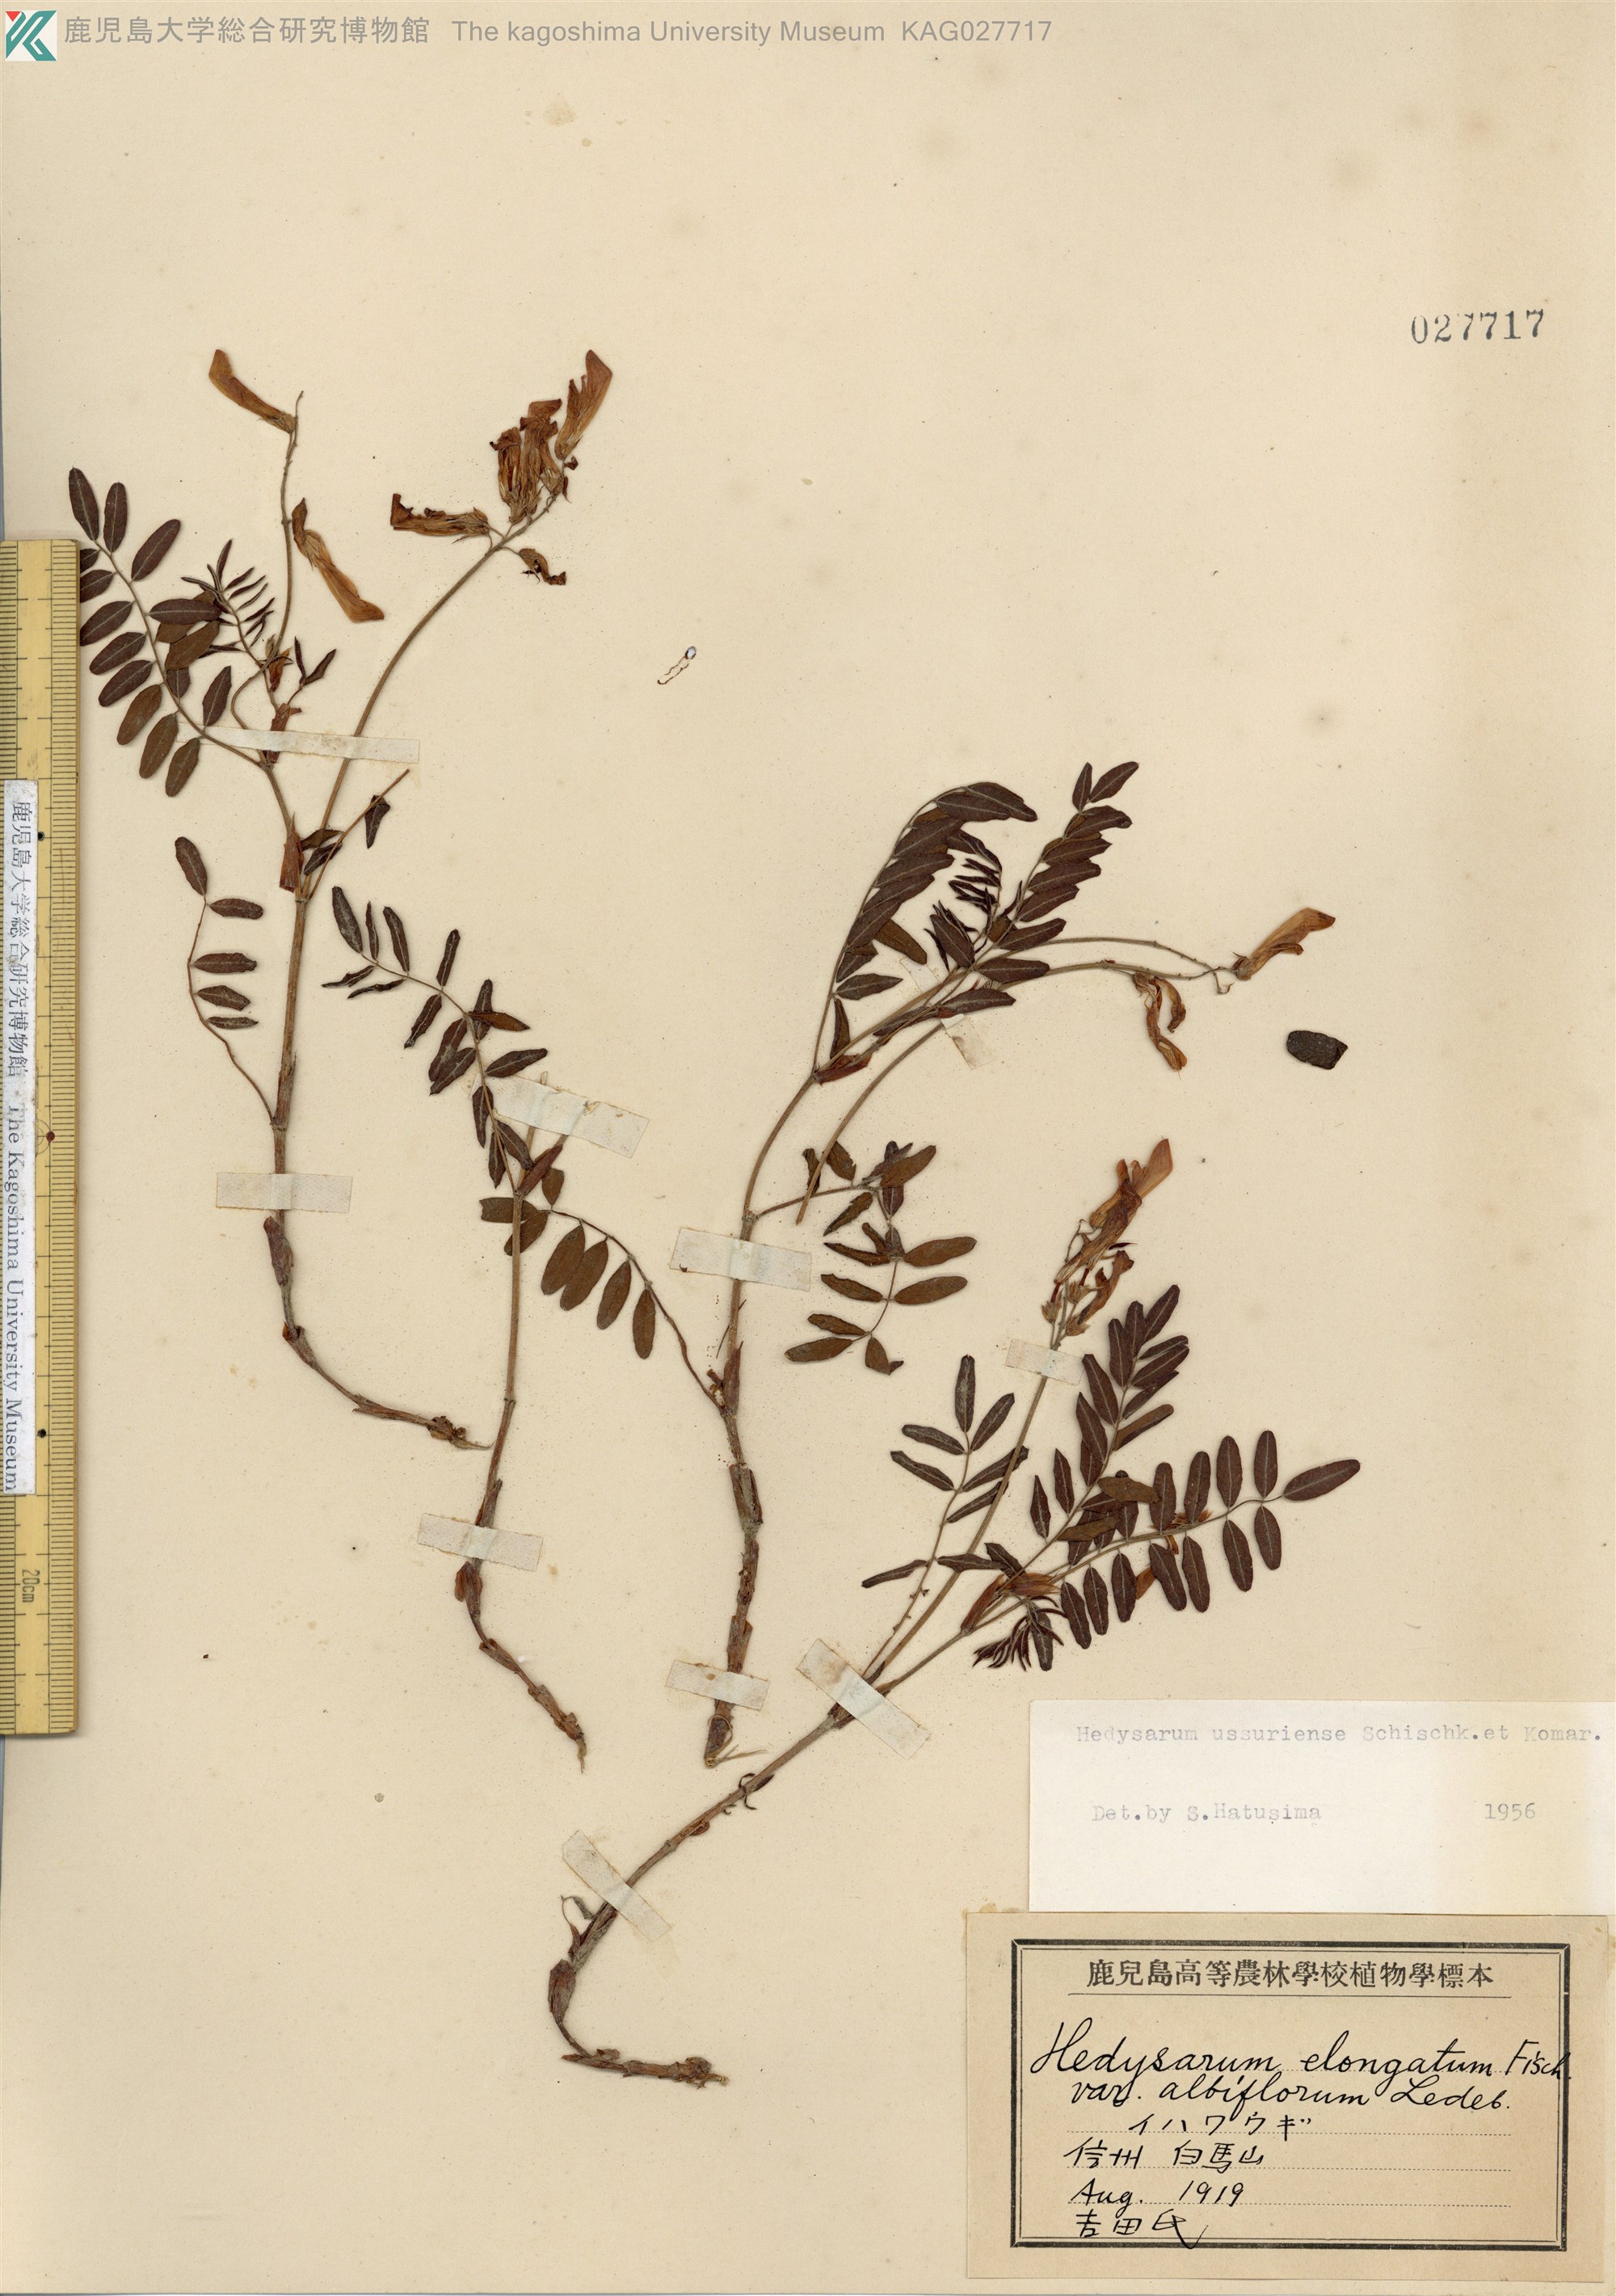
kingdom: Plantae
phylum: Tracheophyta
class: Magnoliopsida
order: Fabales
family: Fabaceae
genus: Hedysarum
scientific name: Hedysarum vicioides
